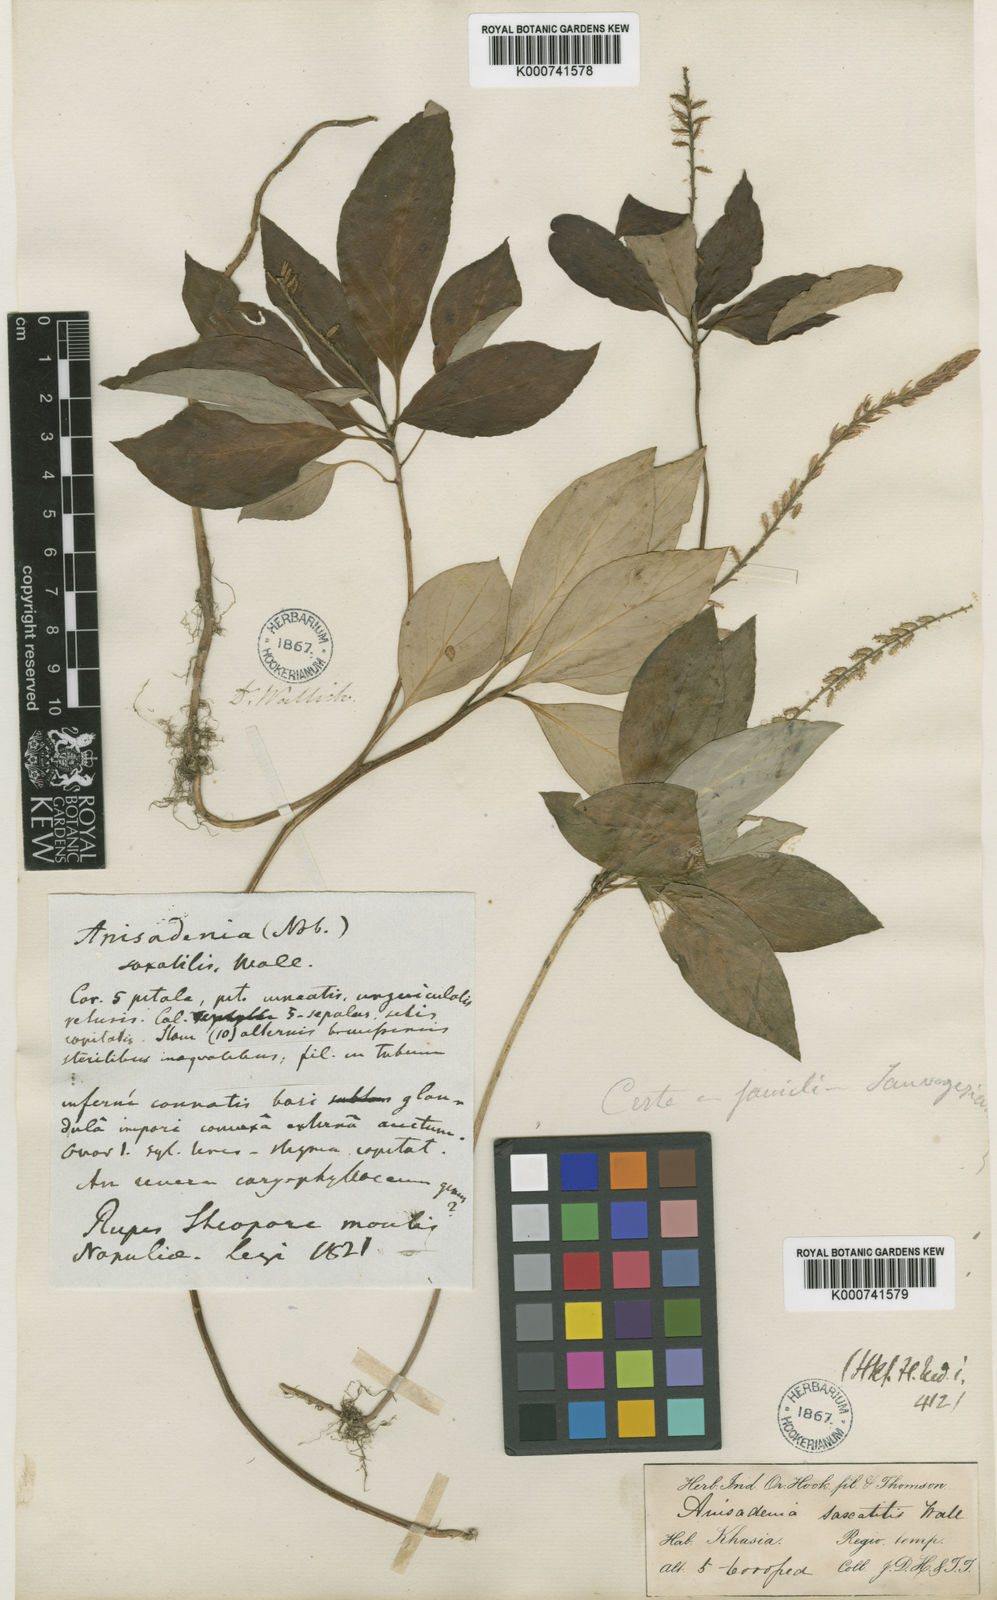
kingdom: Plantae
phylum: Tracheophyta
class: Magnoliopsida
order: Malpighiales
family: Linaceae
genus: Anisadenia
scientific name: Anisadenia
